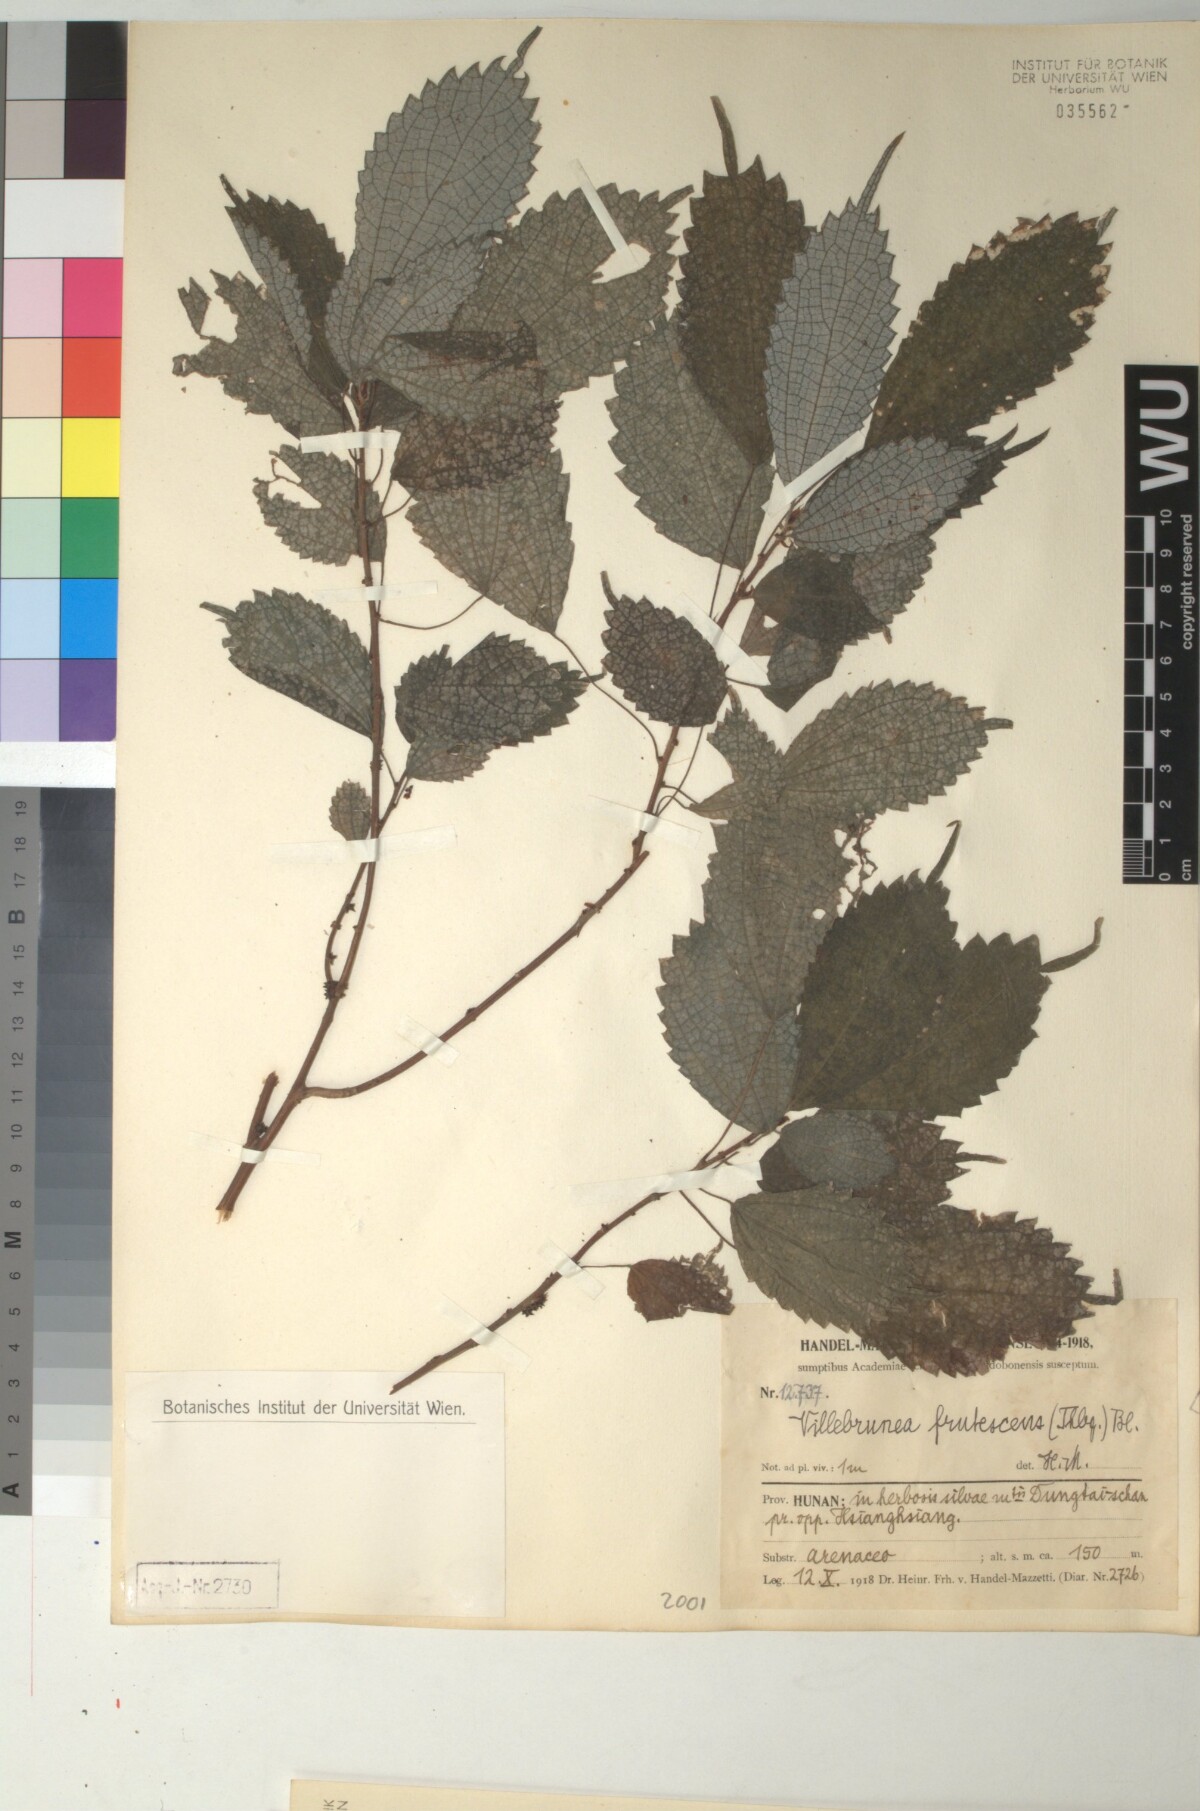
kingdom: Plantae
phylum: Tracheophyta
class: Magnoliopsida
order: Rosales
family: Urticaceae
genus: Oreocnide
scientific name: Oreocnide frutescens
